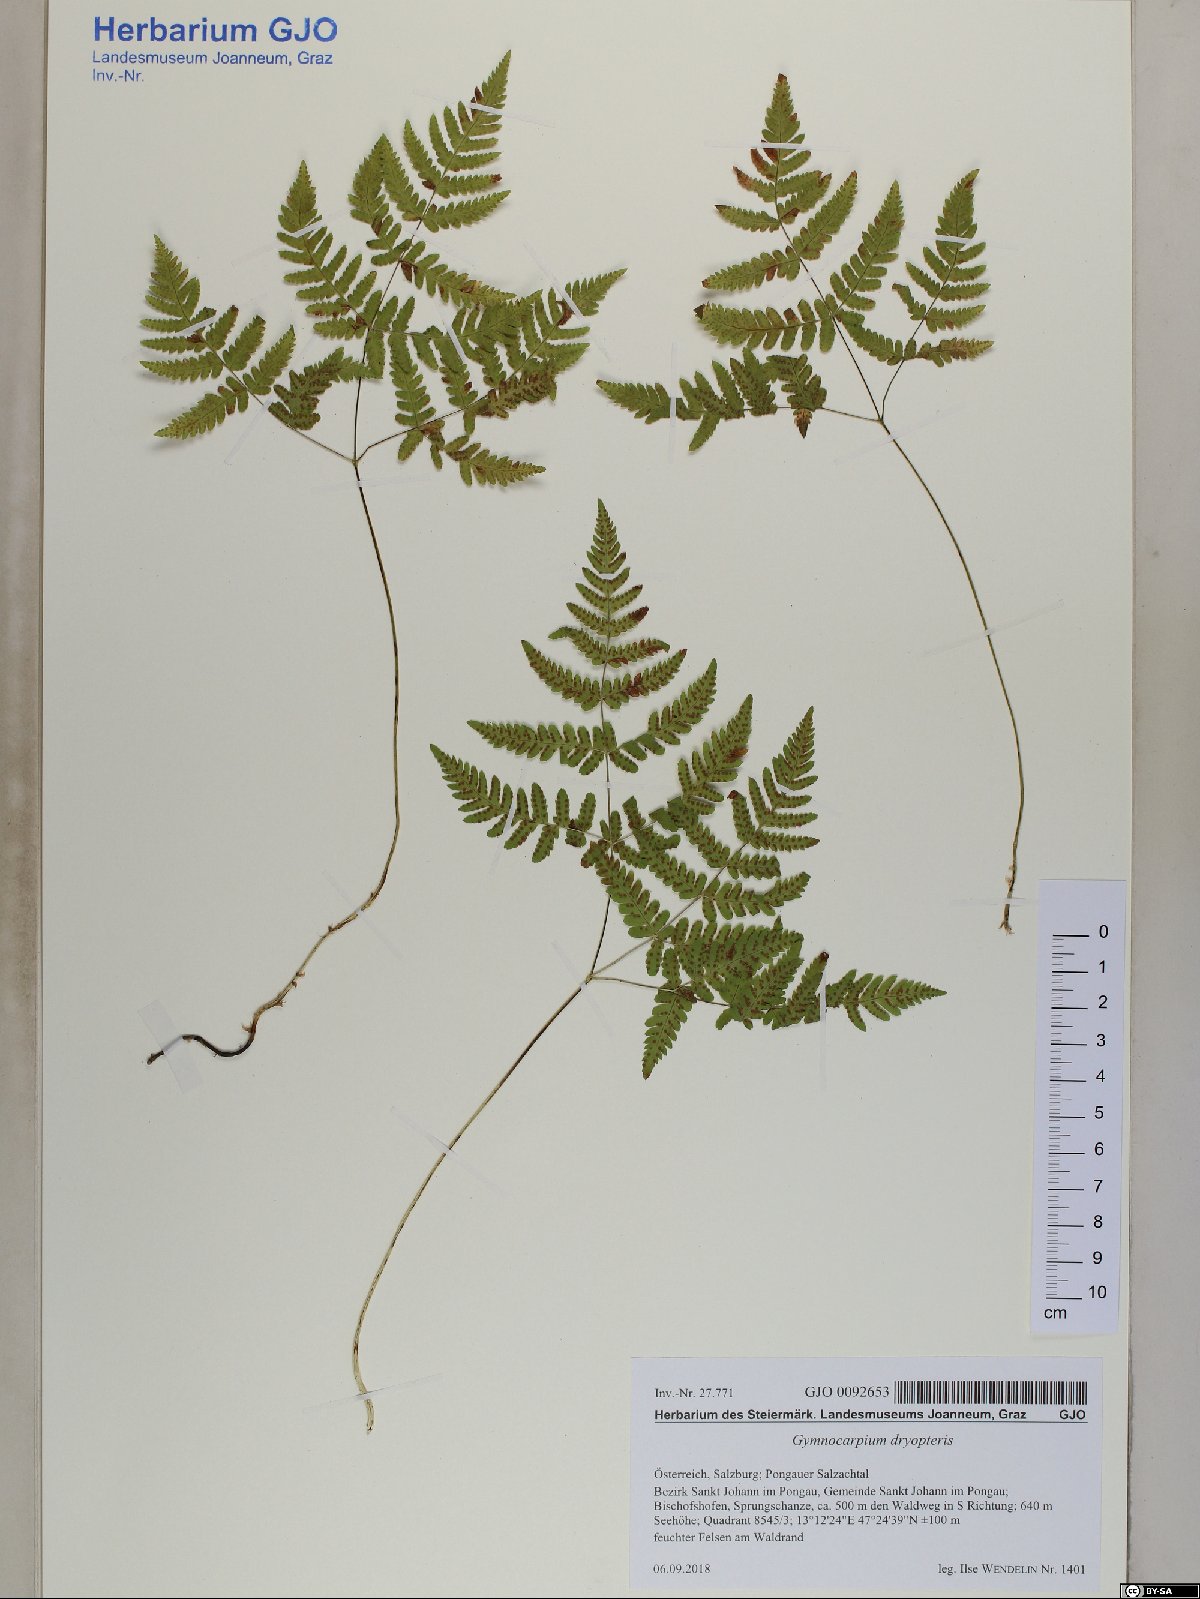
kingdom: Plantae
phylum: Tracheophyta
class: Polypodiopsida
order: Polypodiales
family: Cystopteridaceae
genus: Gymnocarpium
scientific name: Gymnocarpium dryopteris
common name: Oak fern
